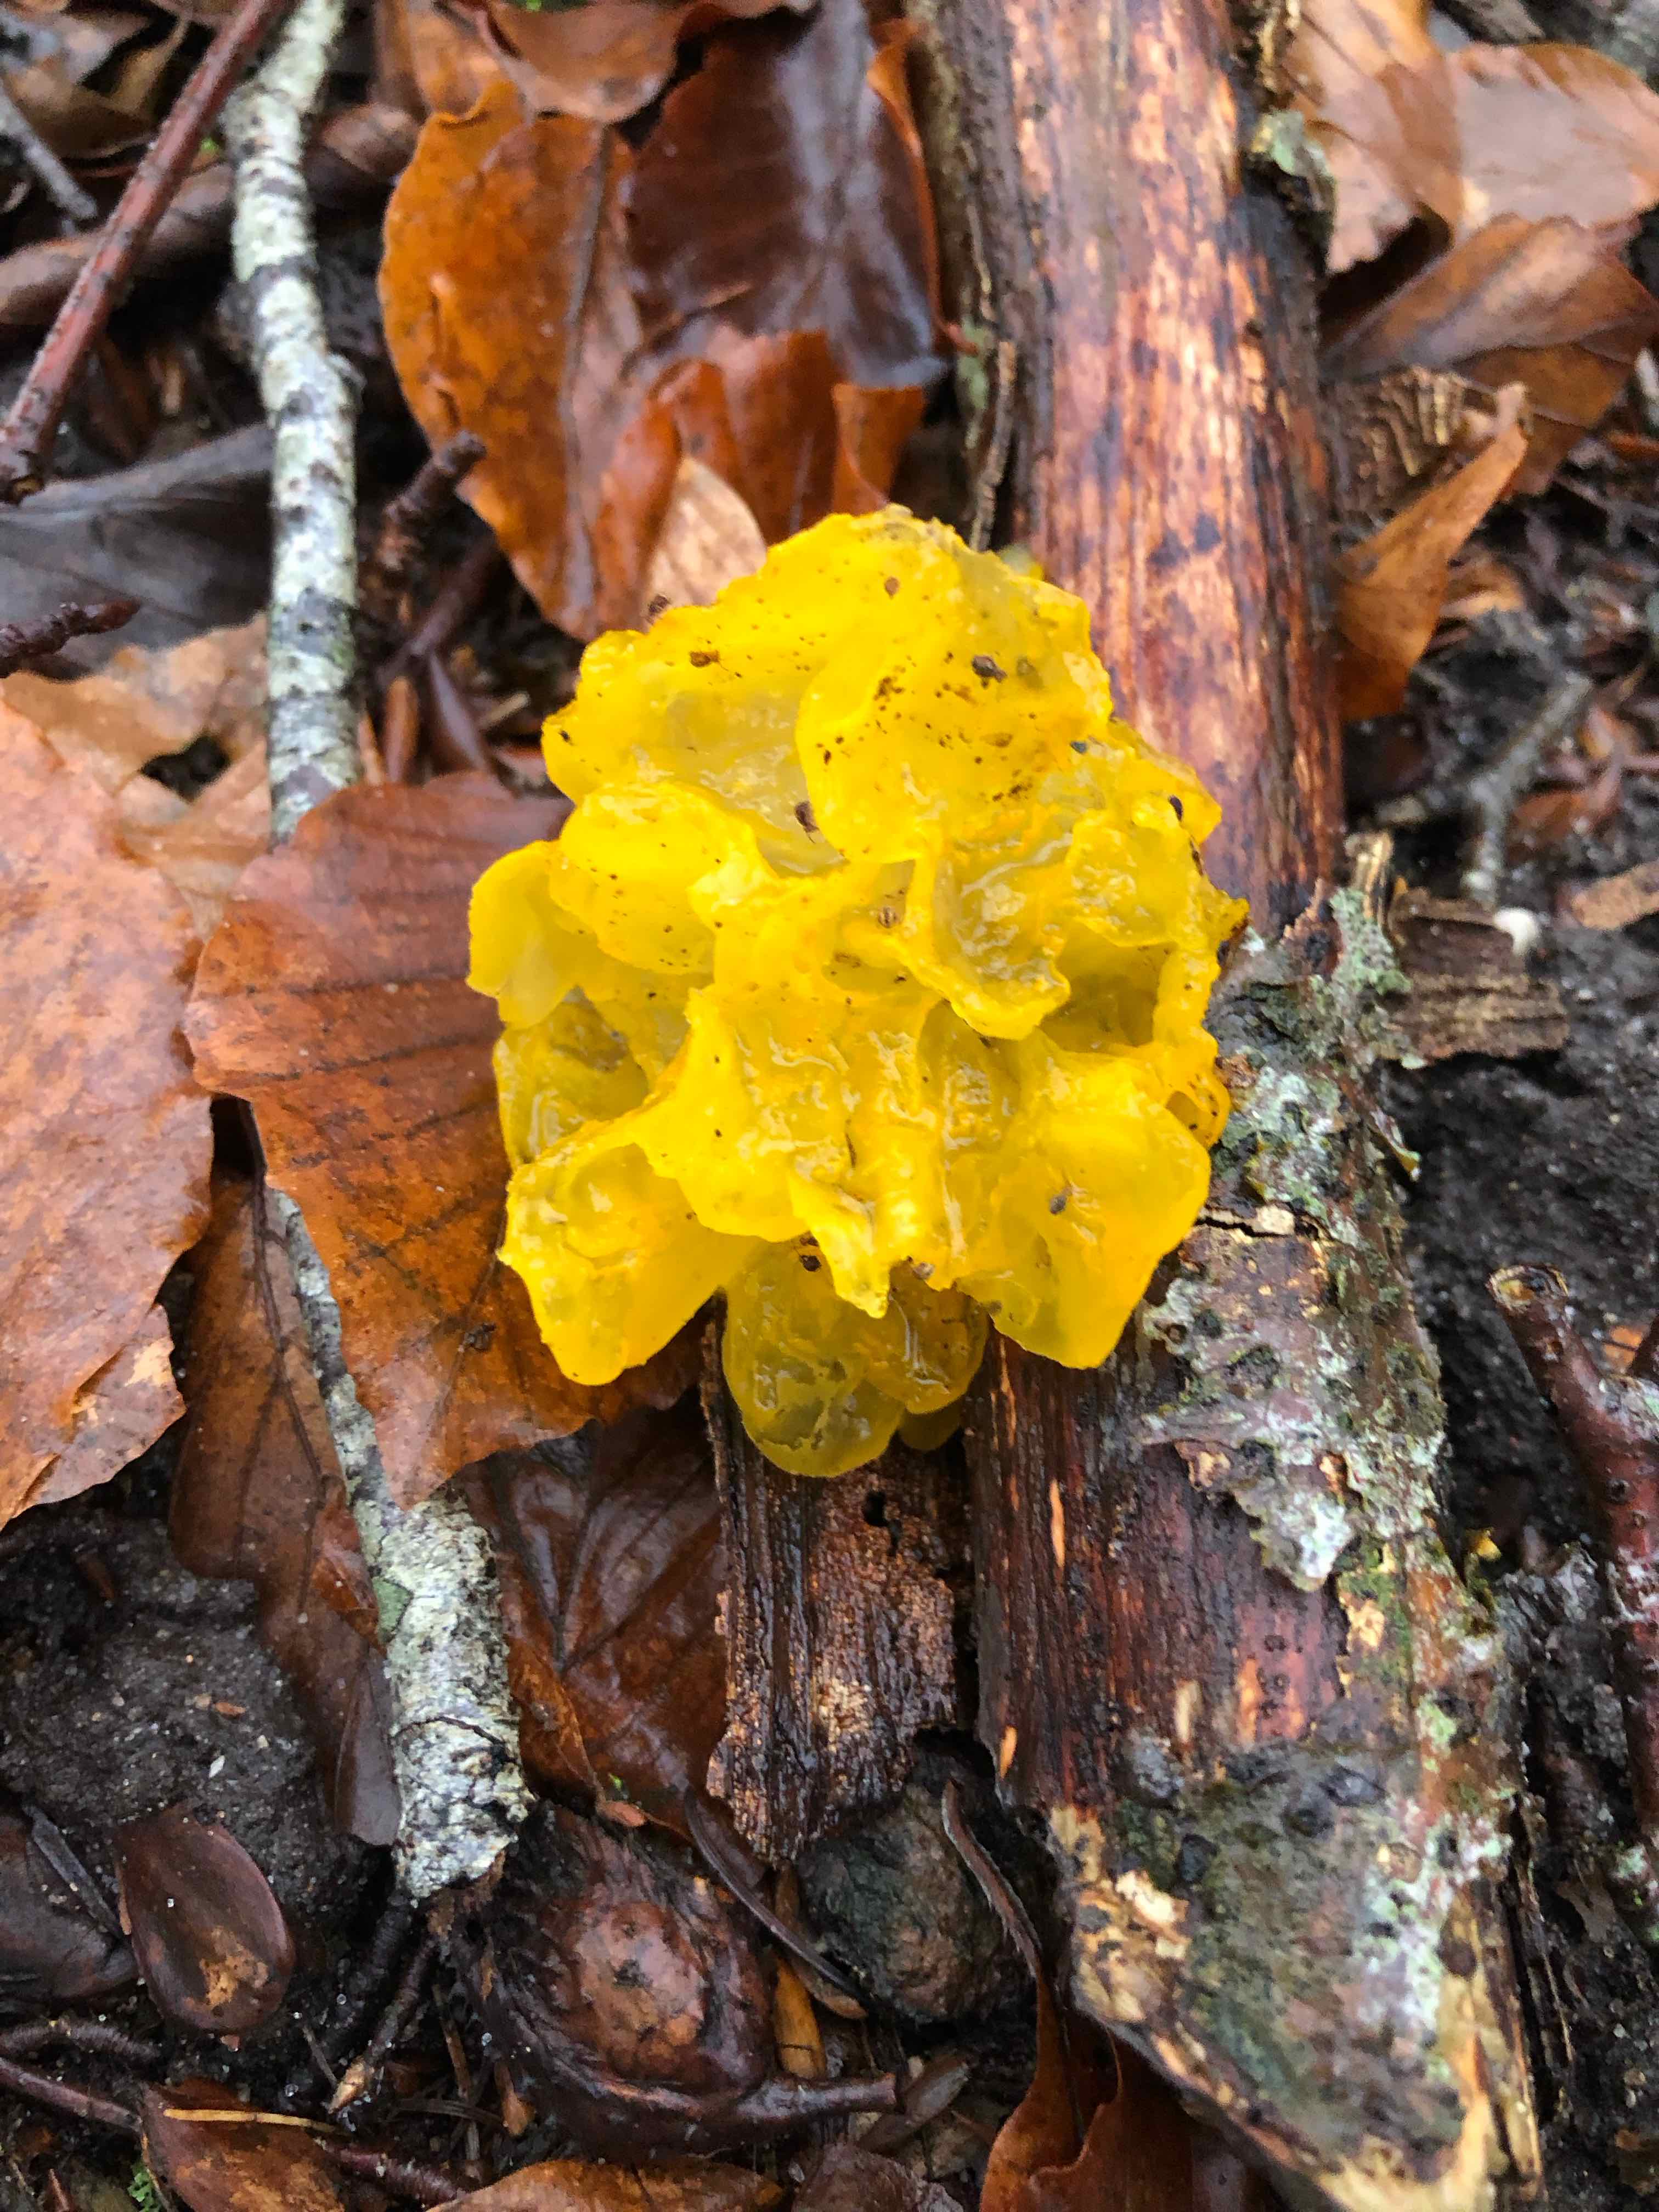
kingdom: Fungi
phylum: Basidiomycota
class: Tremellomycetes
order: Tremellales
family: Tremellaceae
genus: Tremella
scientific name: Tremella mesenterica
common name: gul bævresvamp
